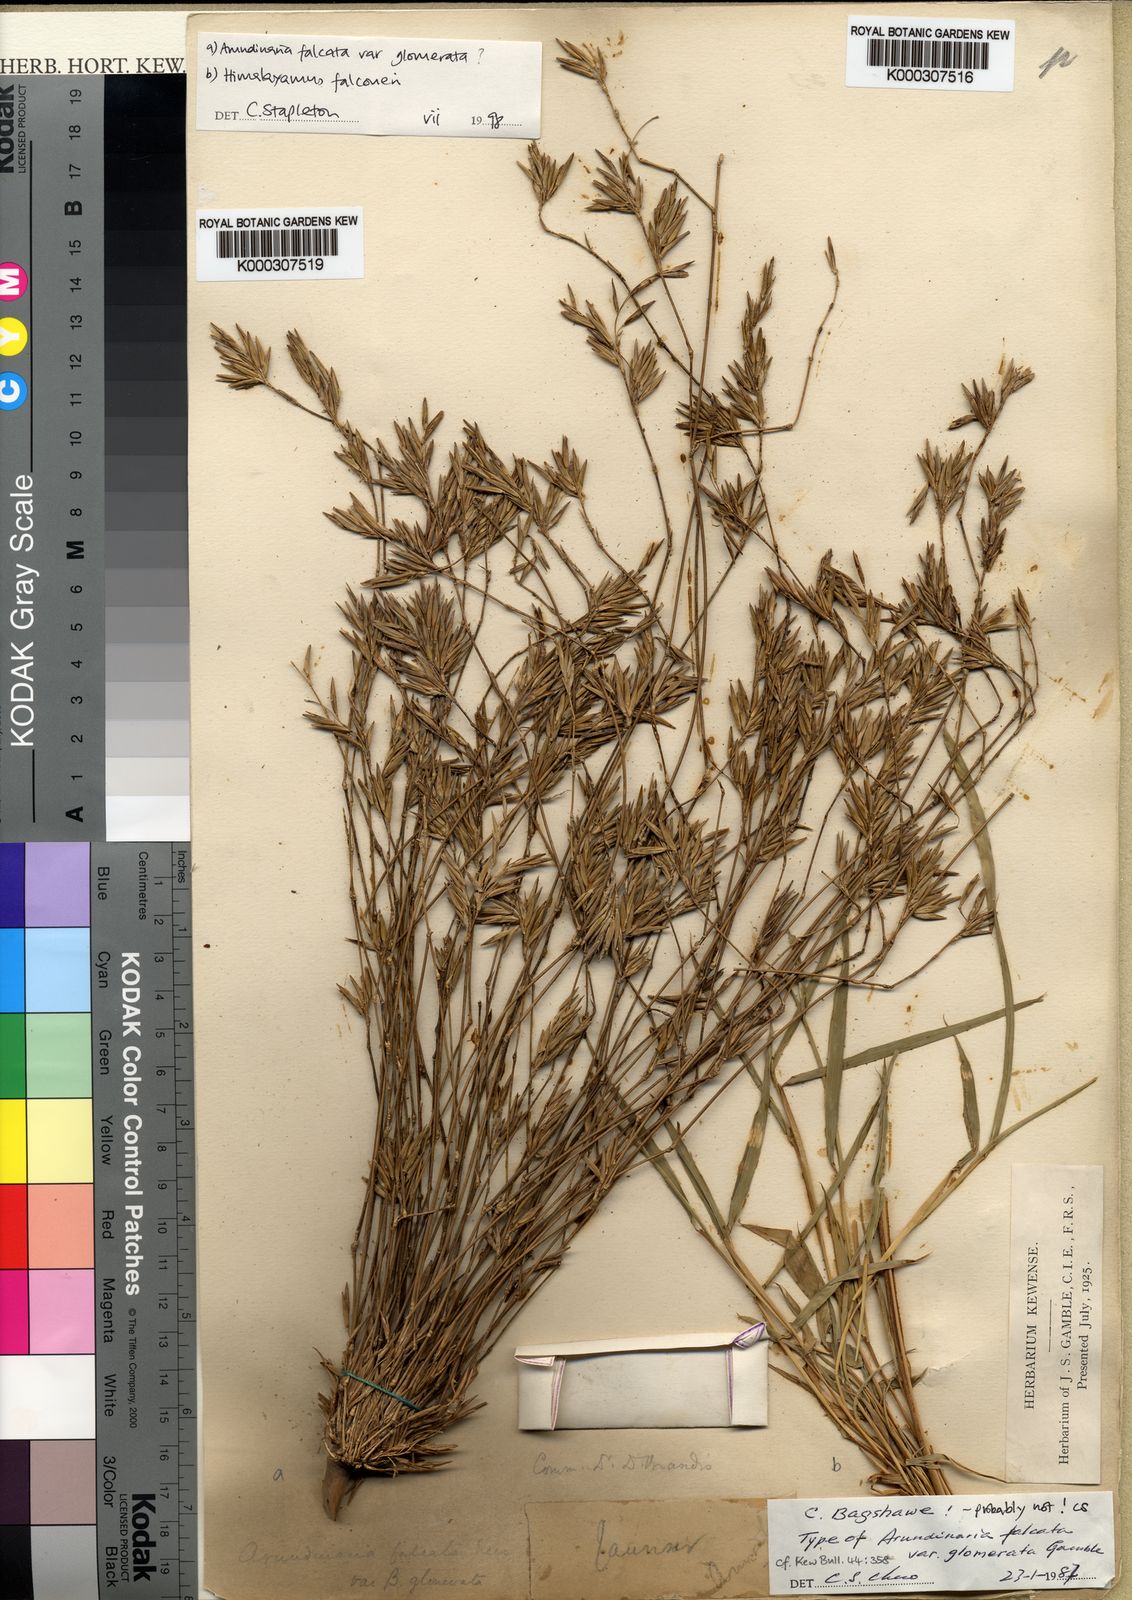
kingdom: Plantae
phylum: Tracheophyta
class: Liliopsida
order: Poales
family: Poaceae
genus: Drepanostachyum
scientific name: Drepanostachyum falcatum
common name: Himalayan bamboo
